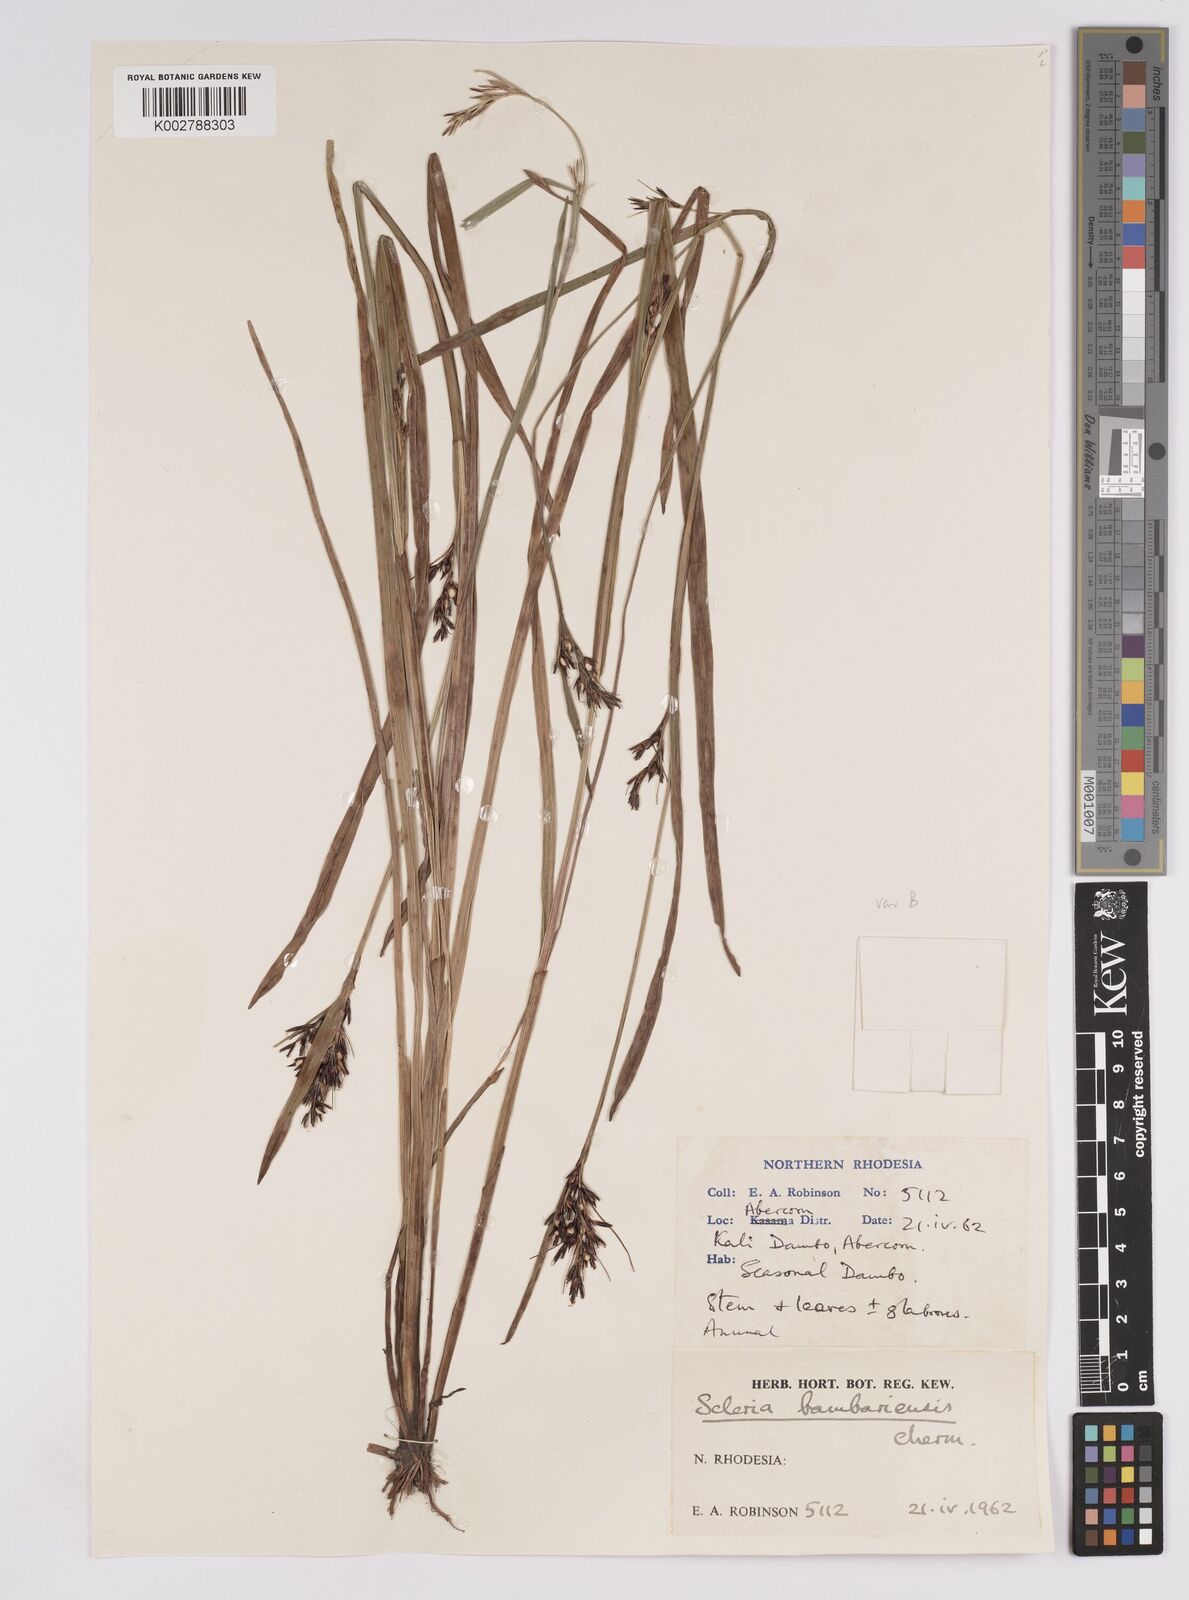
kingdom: Plantae
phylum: Tracheophyta
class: Liliopsida
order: Poales
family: Cyperaceae
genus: Scleria
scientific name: Scleria bambariensis
